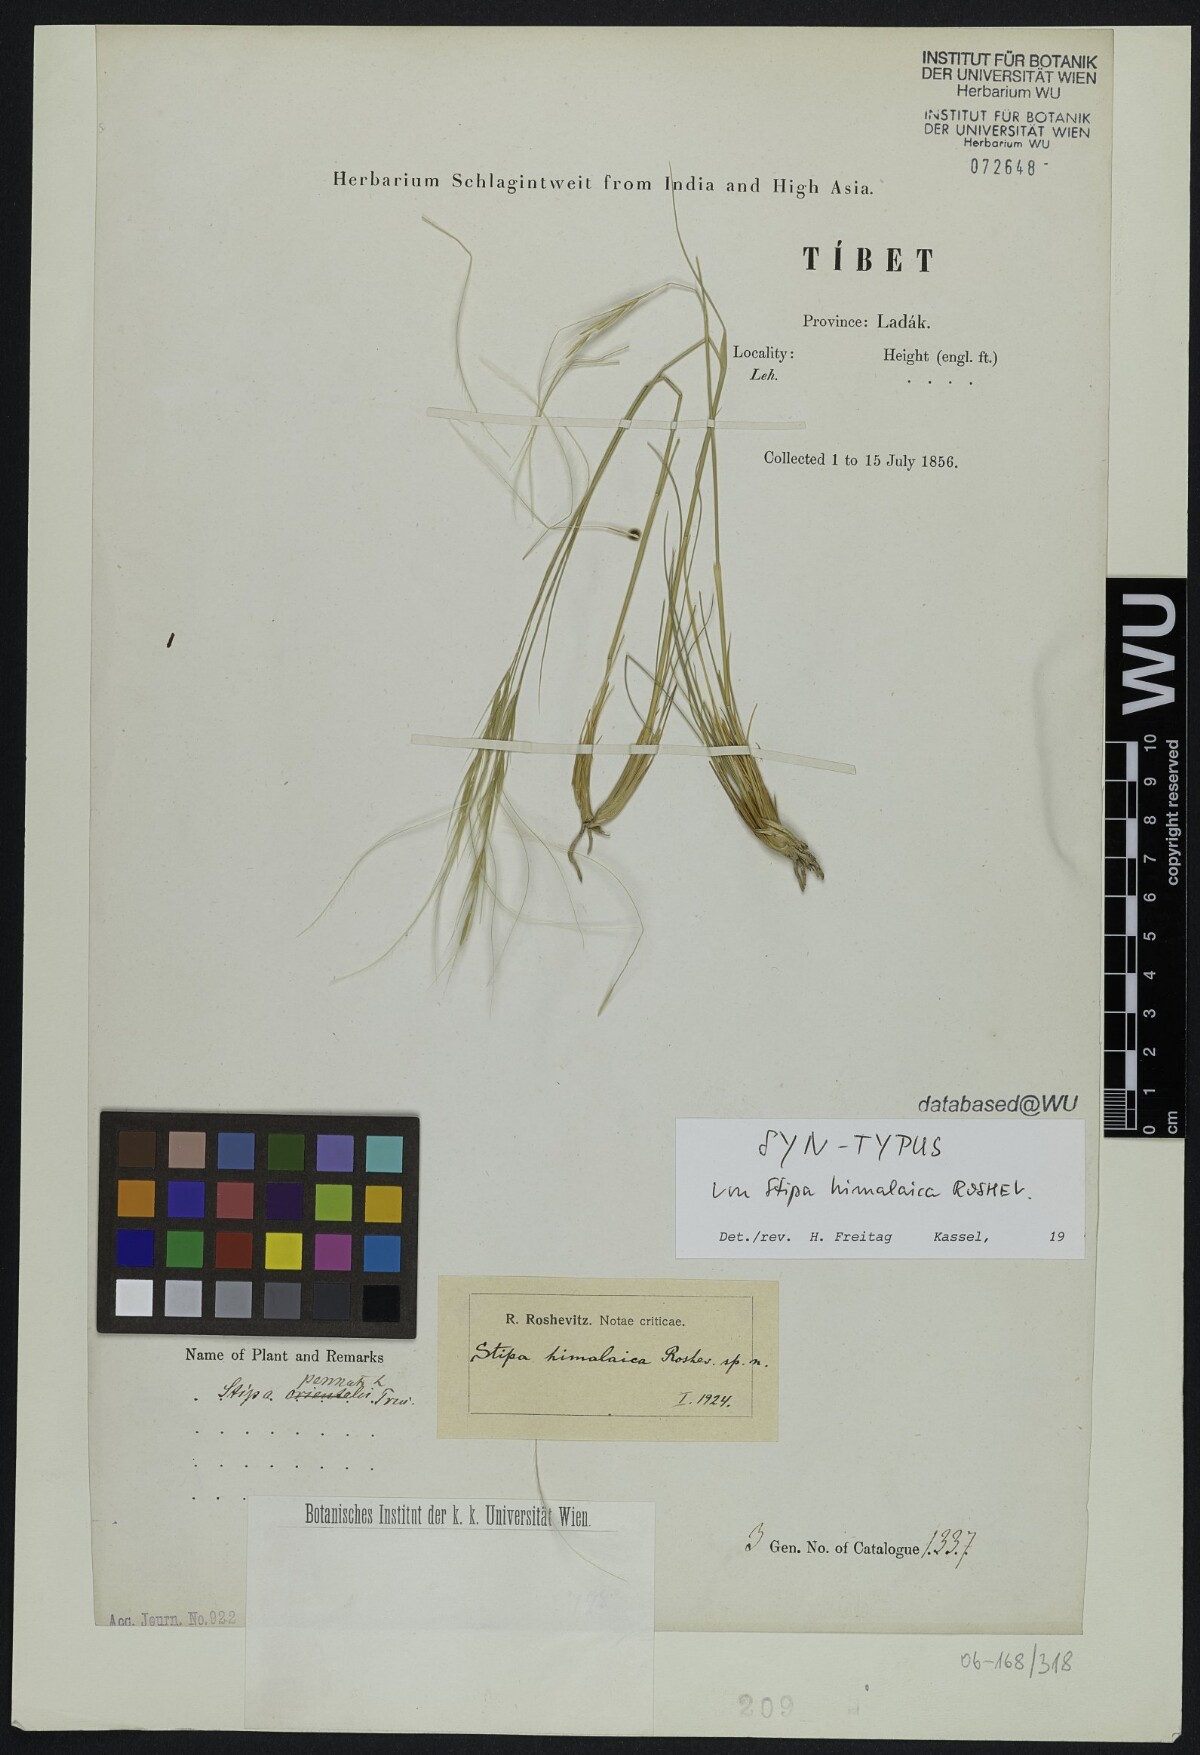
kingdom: Plantae
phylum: Tracheophyta
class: Liliopsida
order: Poales
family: Poaceae
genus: Stipa
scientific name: Stipa himalaica
